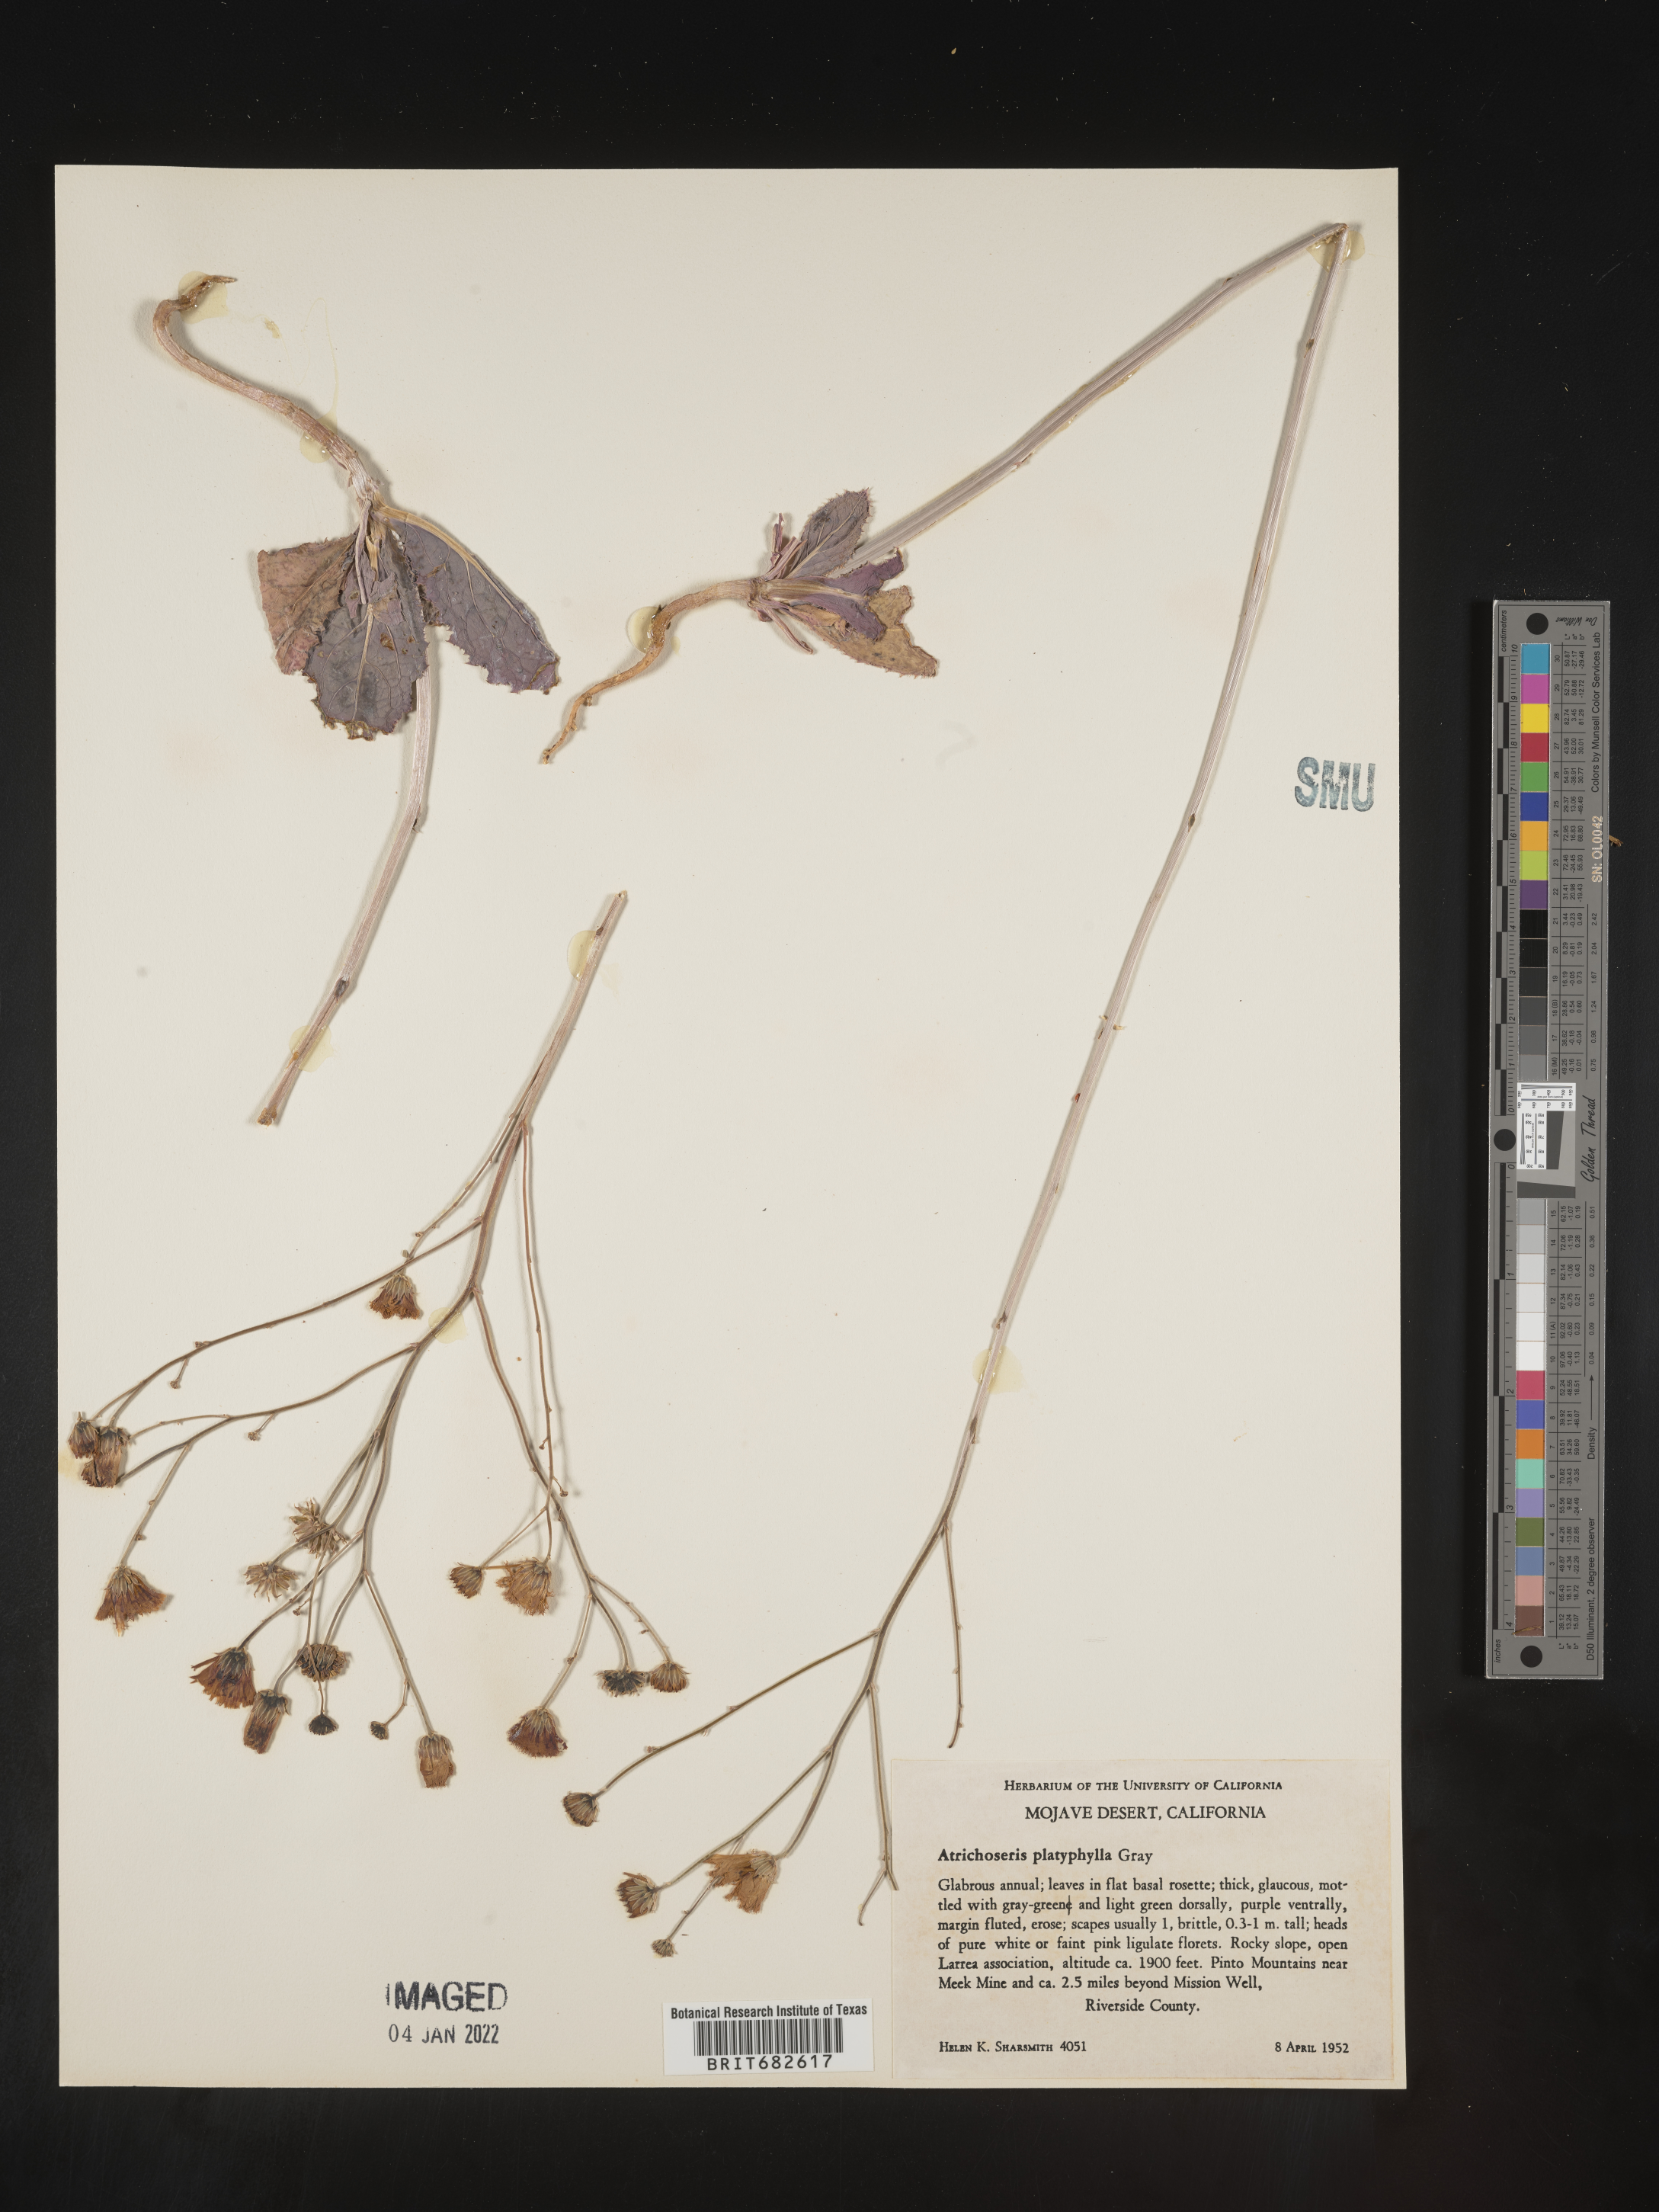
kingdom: Plantae
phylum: Tracheophyta
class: Magnoliopsida
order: Asterales
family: Asteraceae
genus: Atrichoseris
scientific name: Atrichoseris
